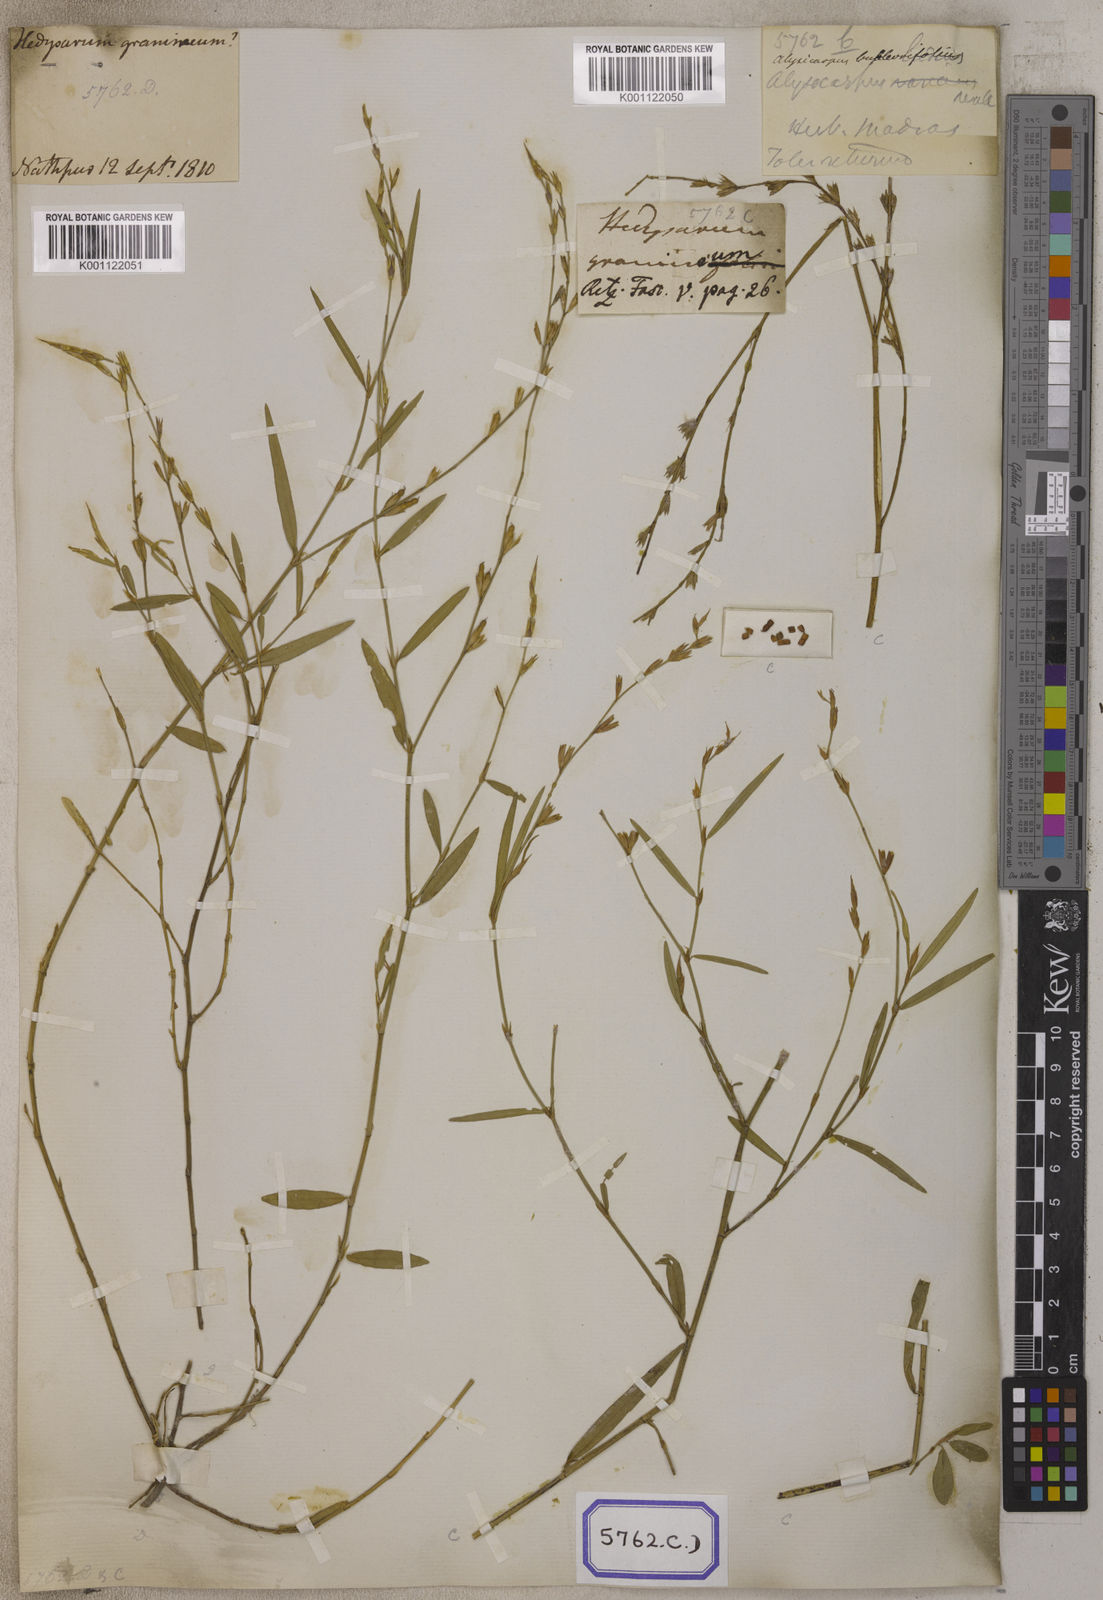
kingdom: Plantae
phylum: Tracheophyta
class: Magnoliopsida
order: Fabales
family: Fabaceae
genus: Alysicarpus
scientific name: Alysicarpus
